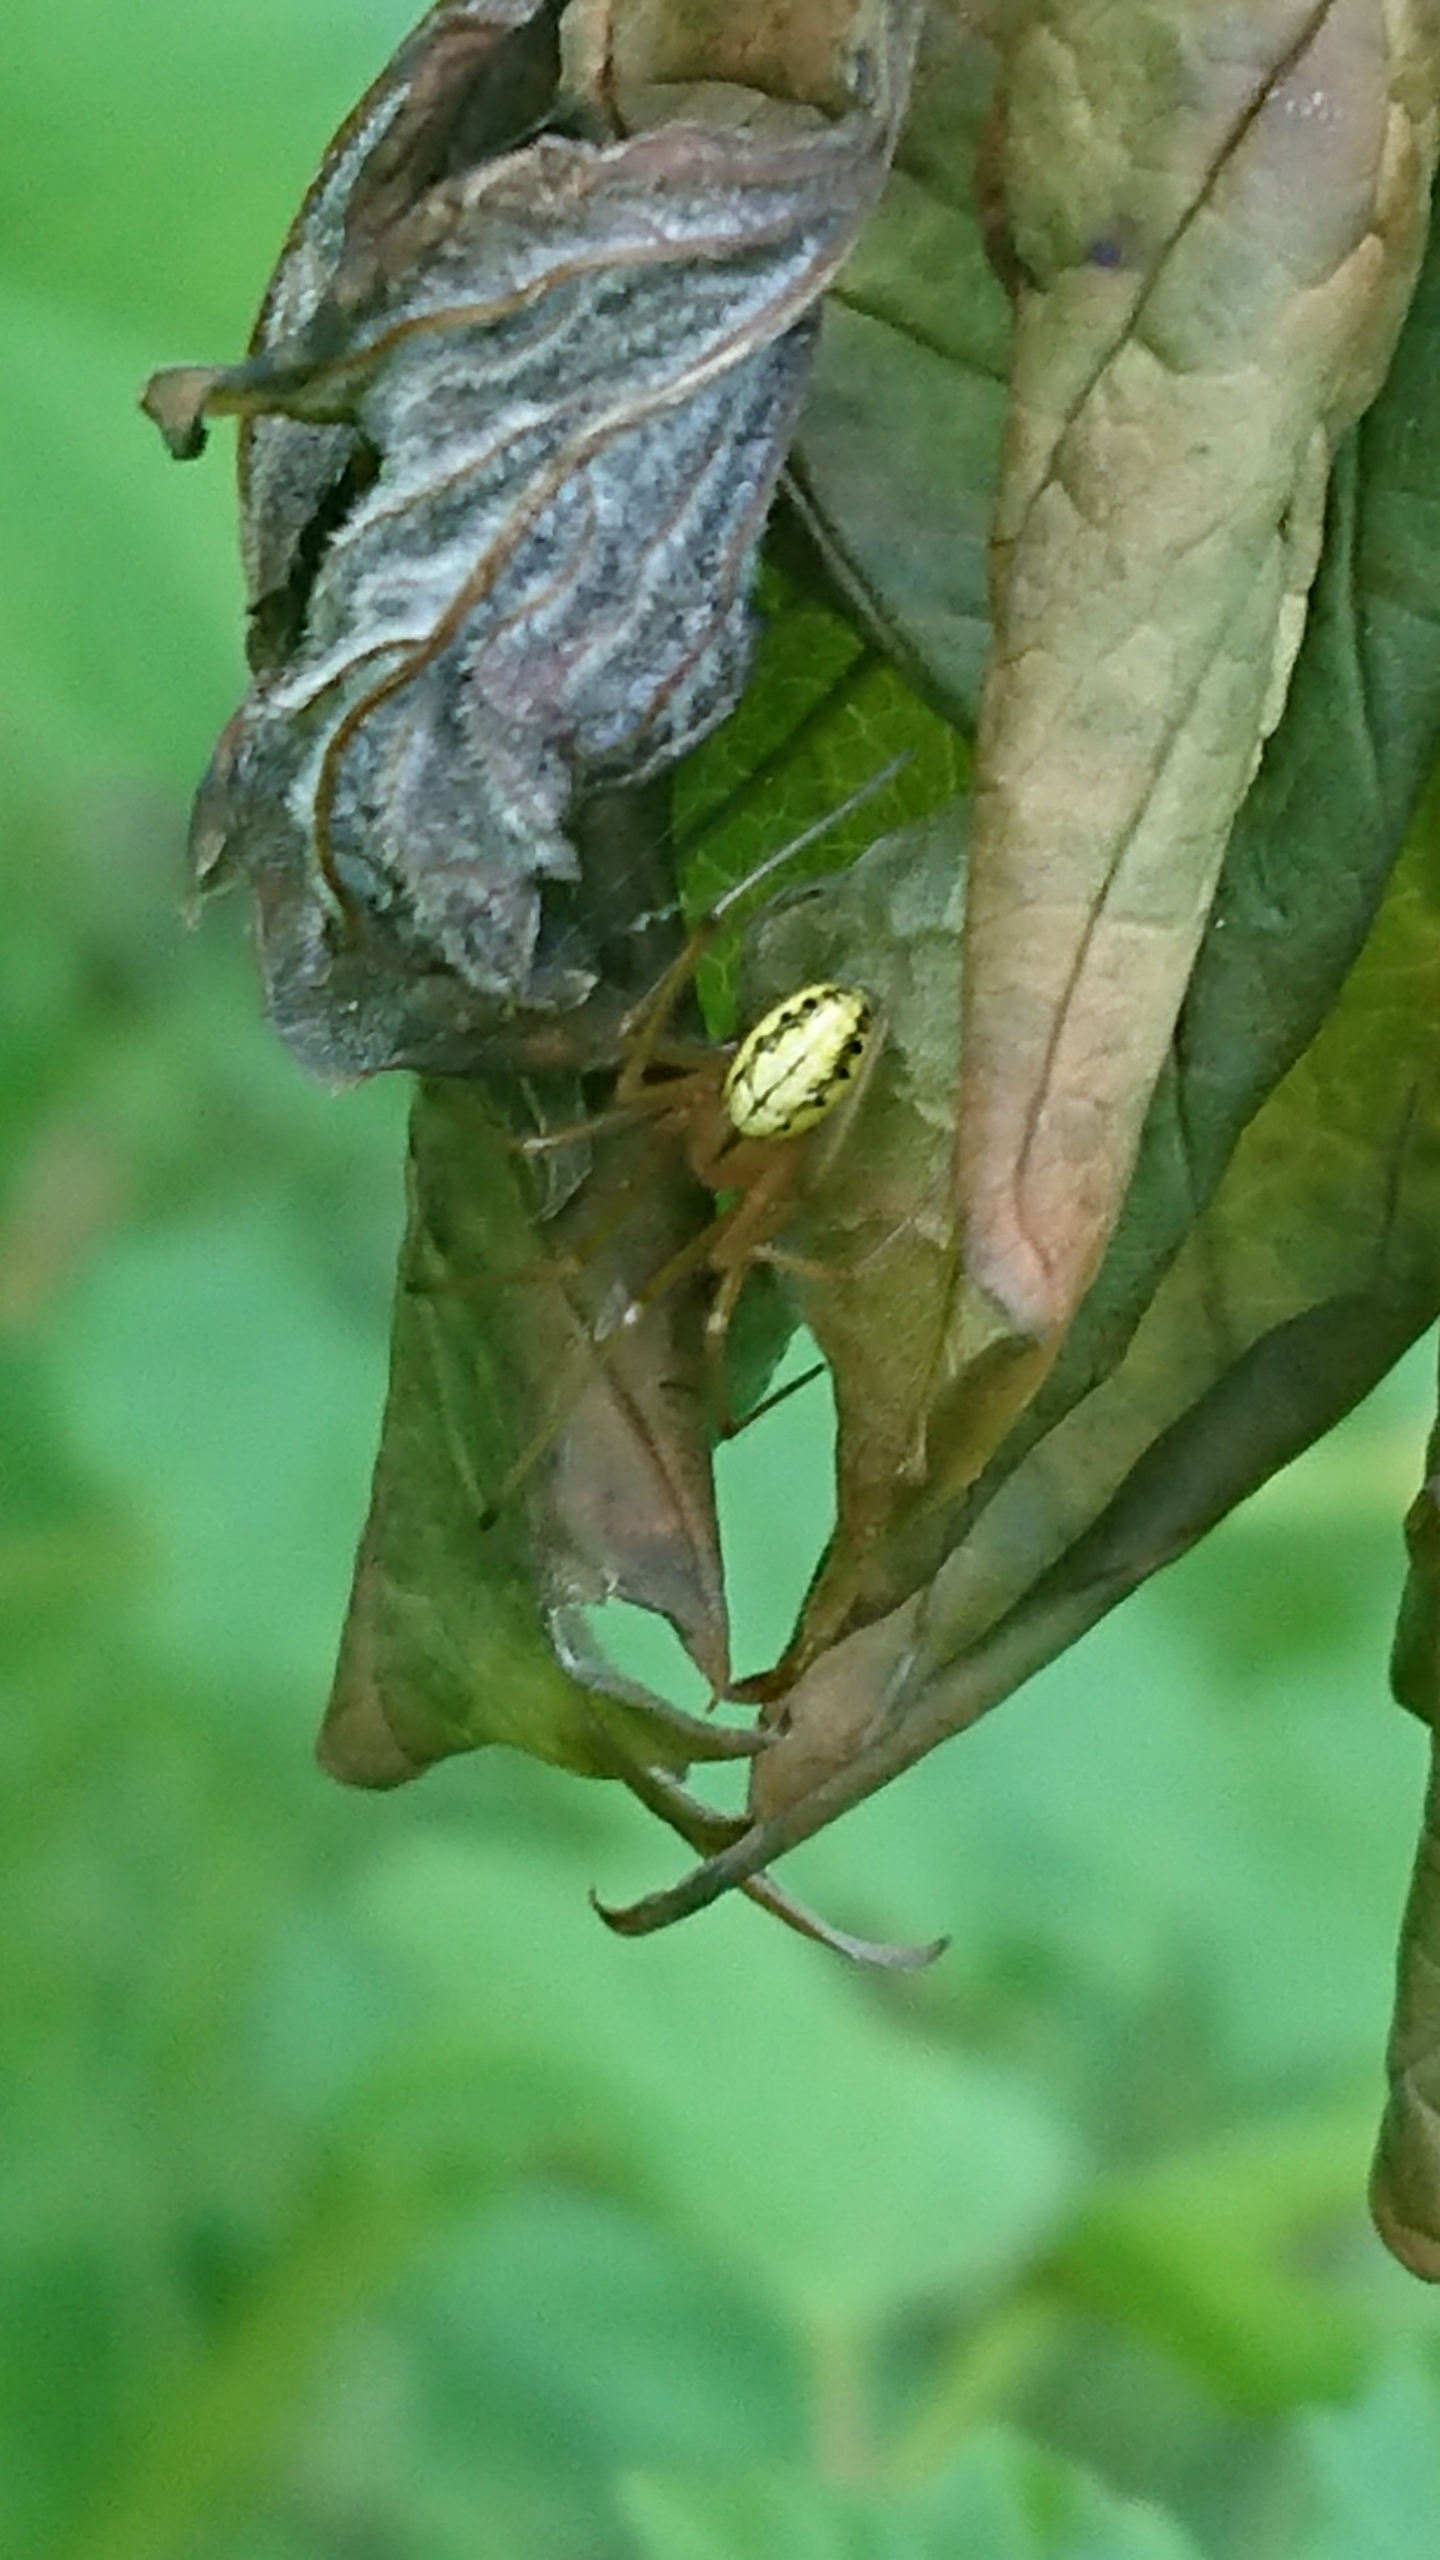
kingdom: Animalia
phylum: Arthropoda
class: Arachnida
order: Araneae
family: Theridiidae
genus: Enoplognatha
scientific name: Enoplognatha
